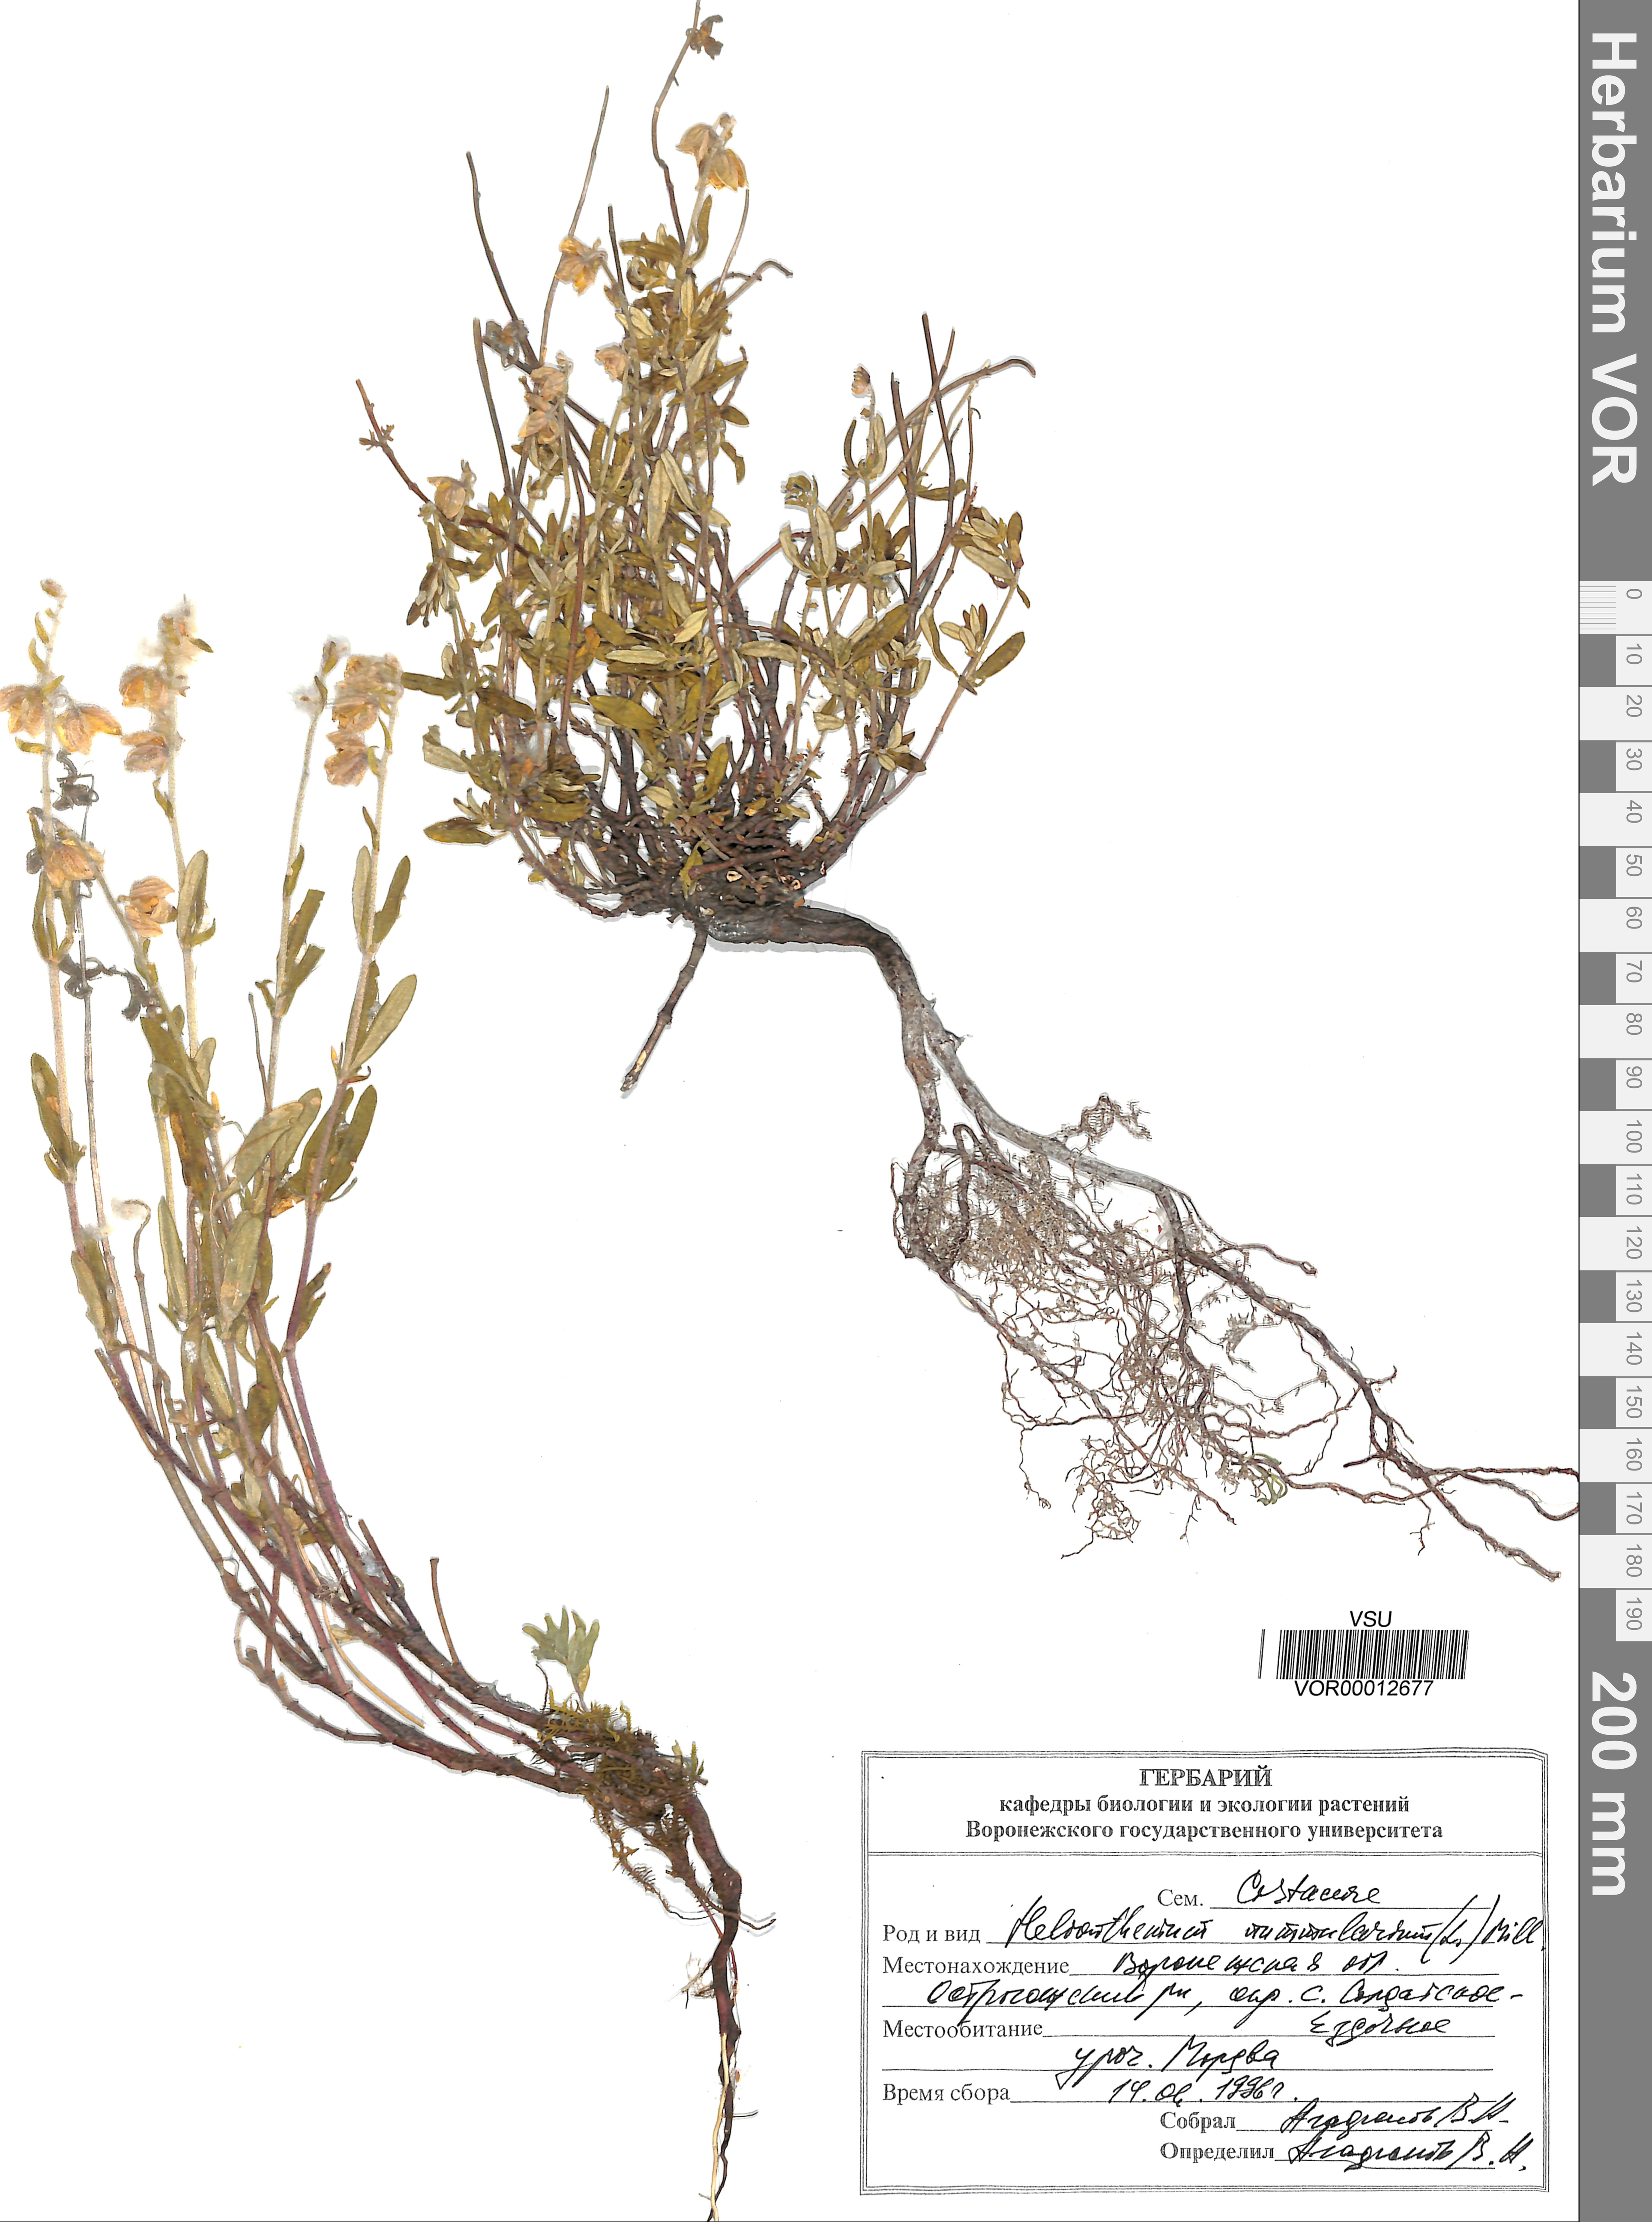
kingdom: Plantae
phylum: Tracheophyta
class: Magnoliopsida
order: Malvales
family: Cistaceae
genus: Helianthemum
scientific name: Helianthemum nummularium
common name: Common rock-rose
